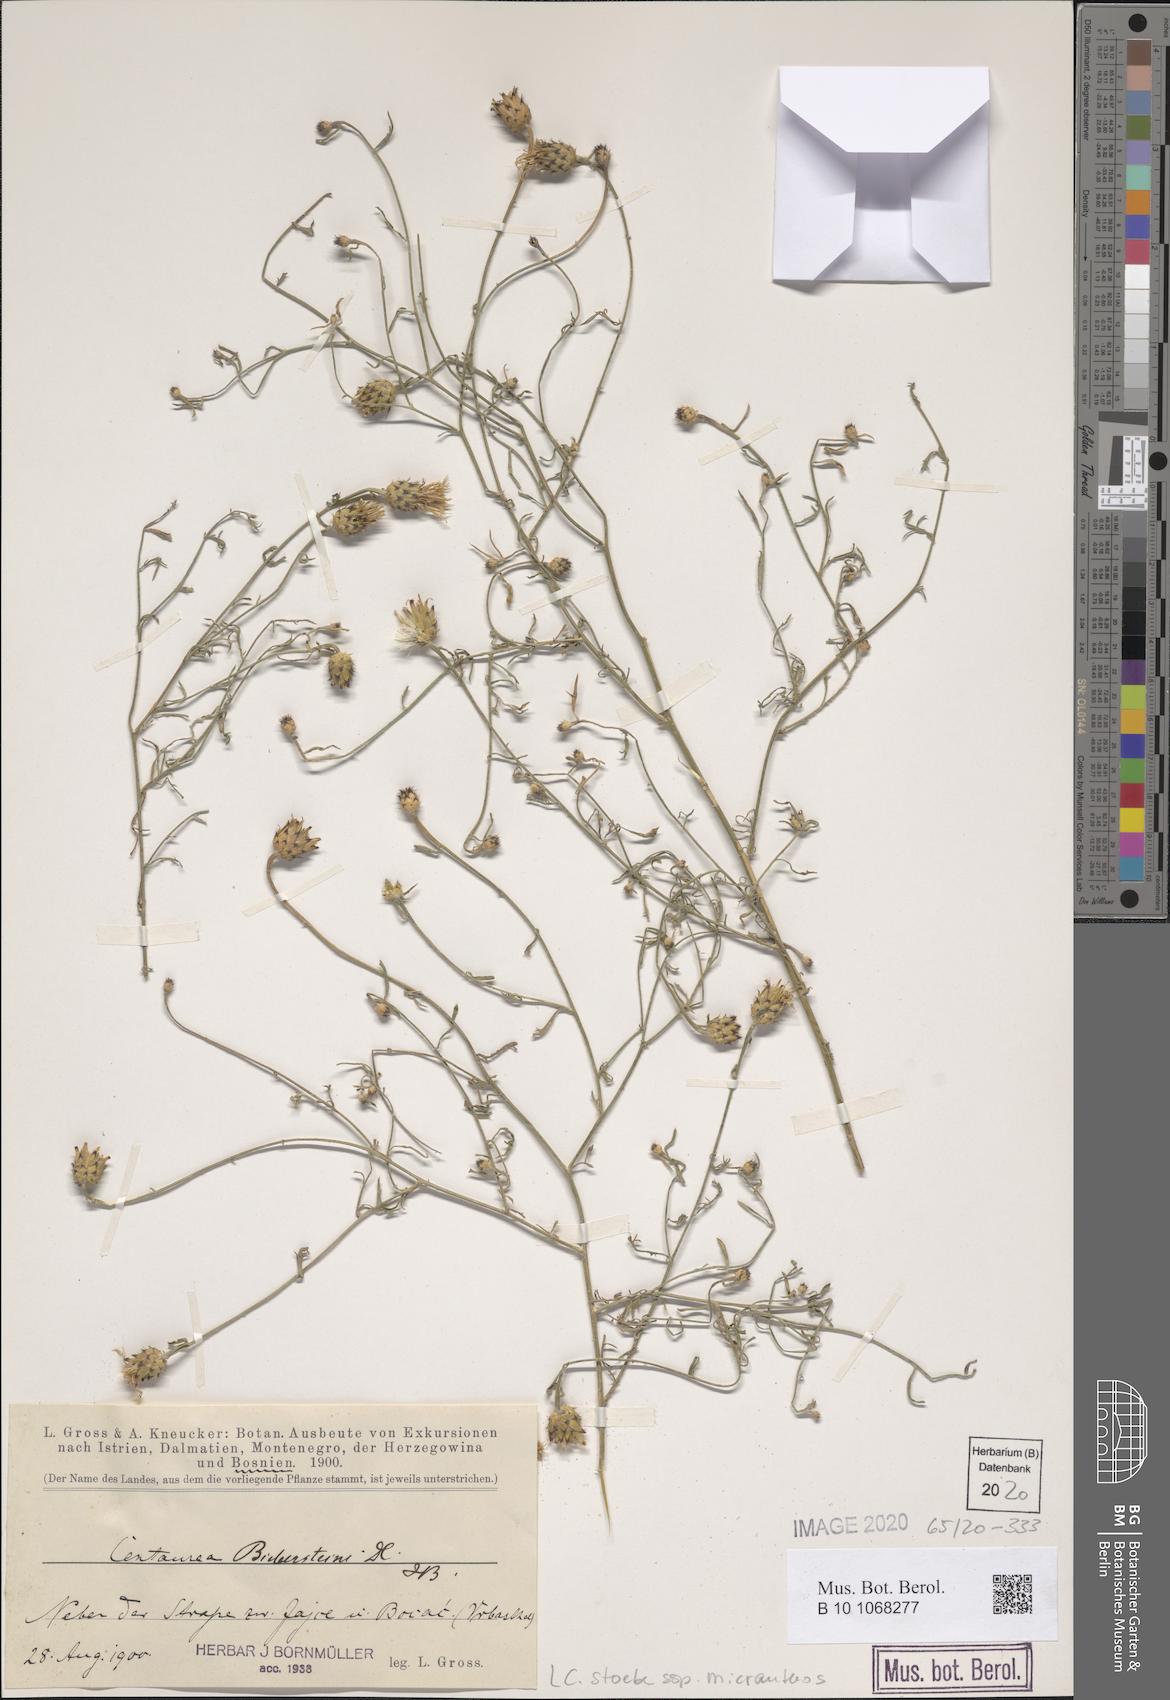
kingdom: Plantae
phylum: Tracheophyta
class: Magnoliopsida
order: Asterales
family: Asteraceae
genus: Centaurea
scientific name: Centaurea australis
